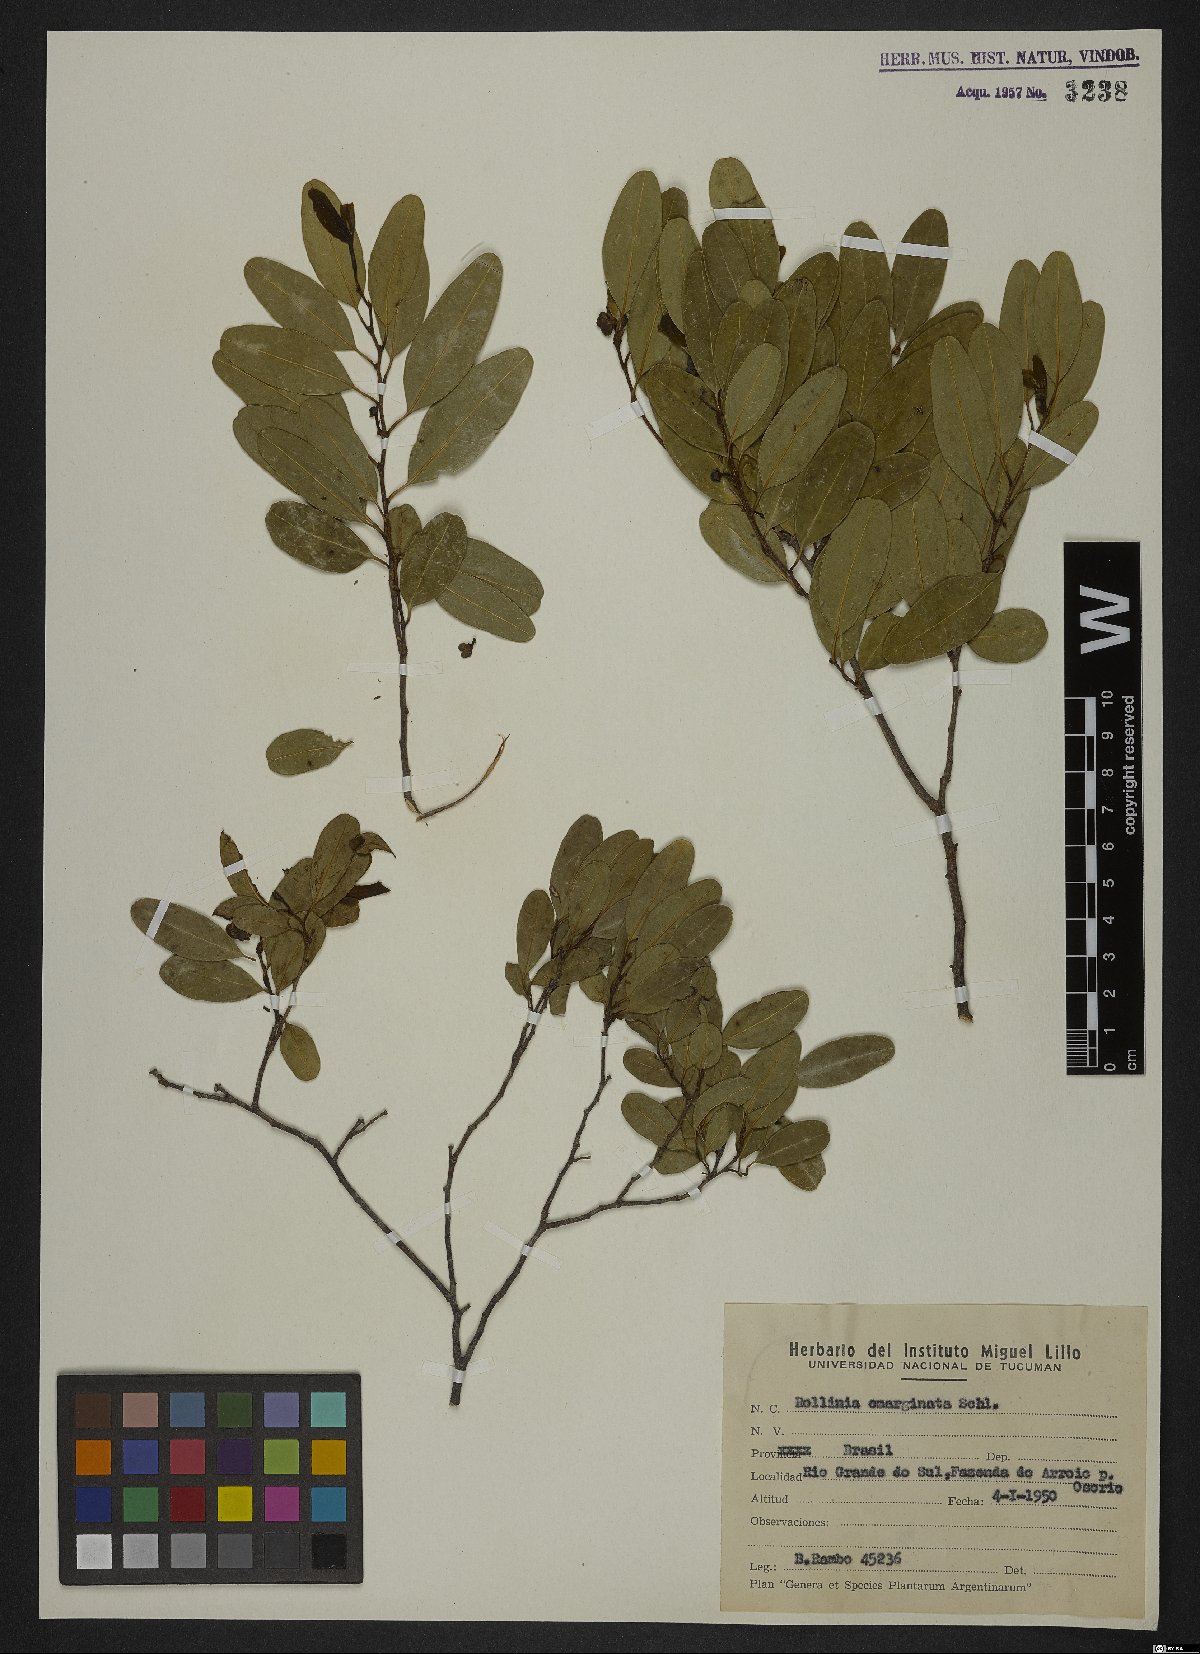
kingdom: Plantae
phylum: Tracheophyta
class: Magnoliopsida
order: Magnoliales
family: Annonaceae
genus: Annona
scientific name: Annona emarginata
